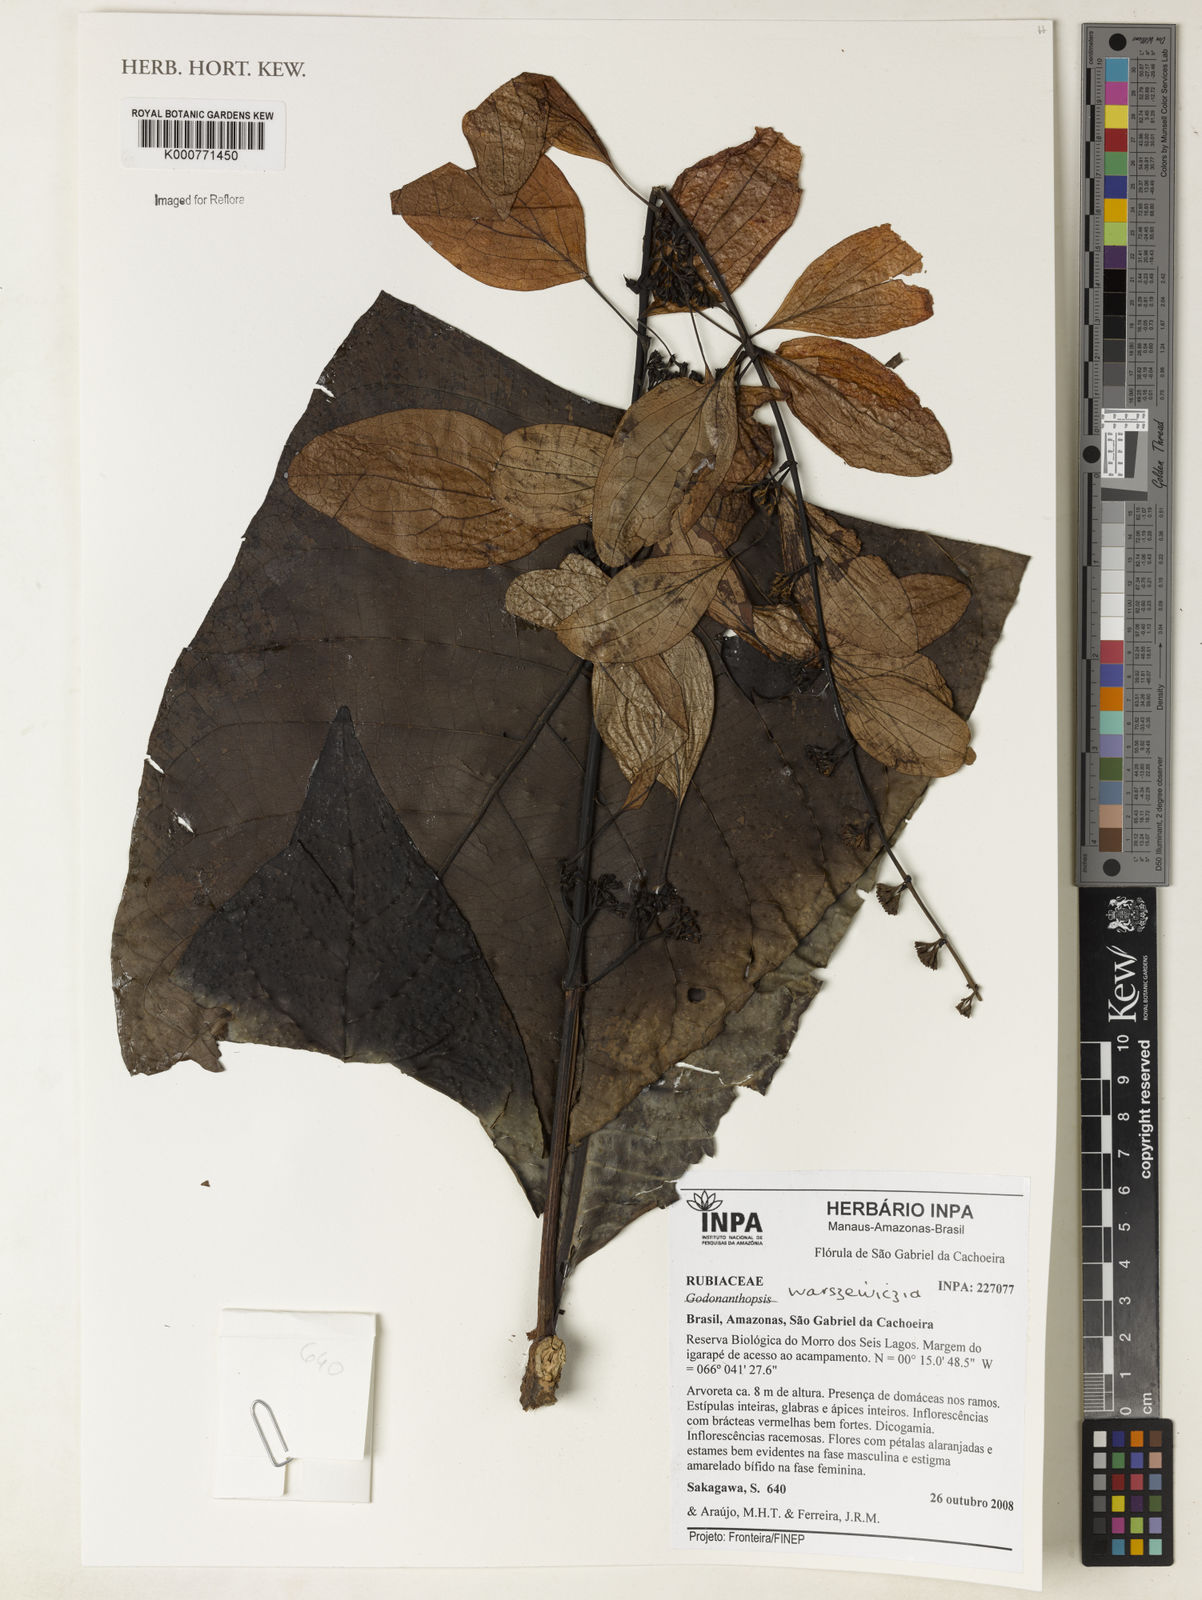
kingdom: Plantae
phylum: Tracheophyta
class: Magnoliopsida
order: Gentianales
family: Rubiaceae
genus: Warszewiczia
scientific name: Warszewiczia
